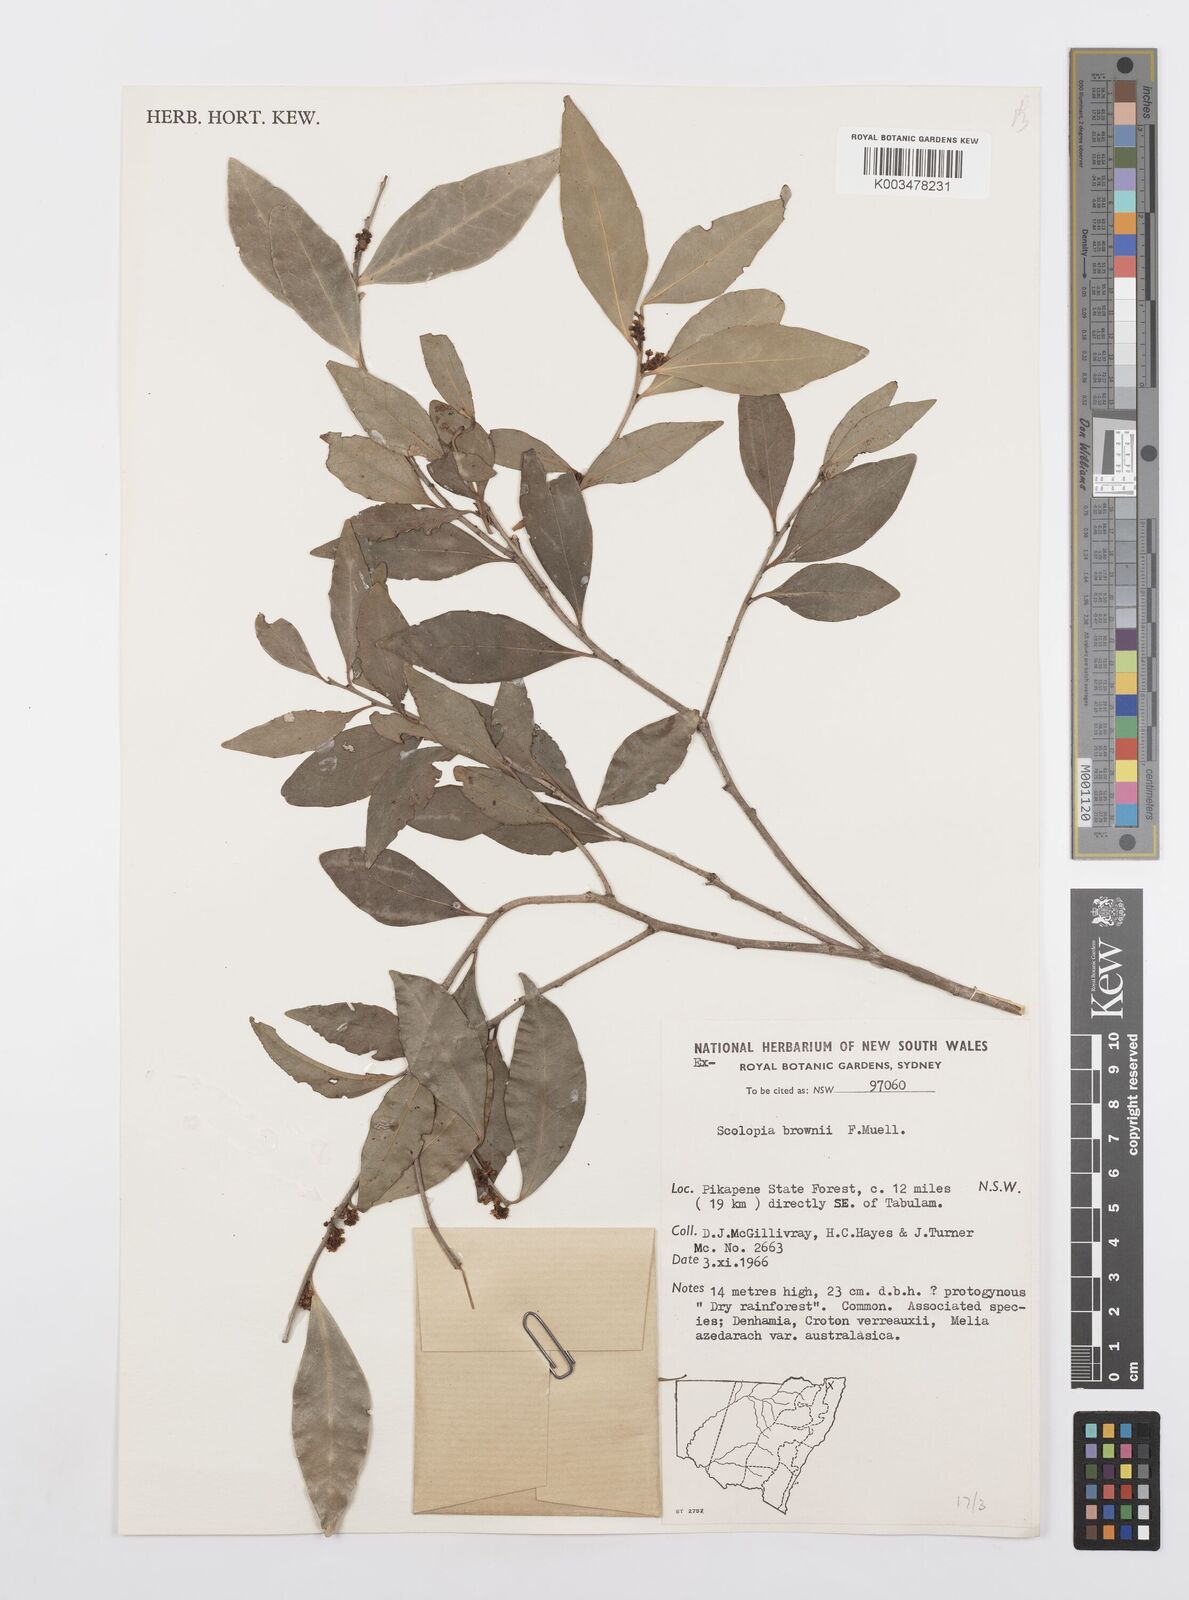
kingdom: Plantae
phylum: Tracheophyta
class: Magnoliopsida
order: Malpighiales
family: Salicaceae
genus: Scolopia
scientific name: Scolopia braunii
